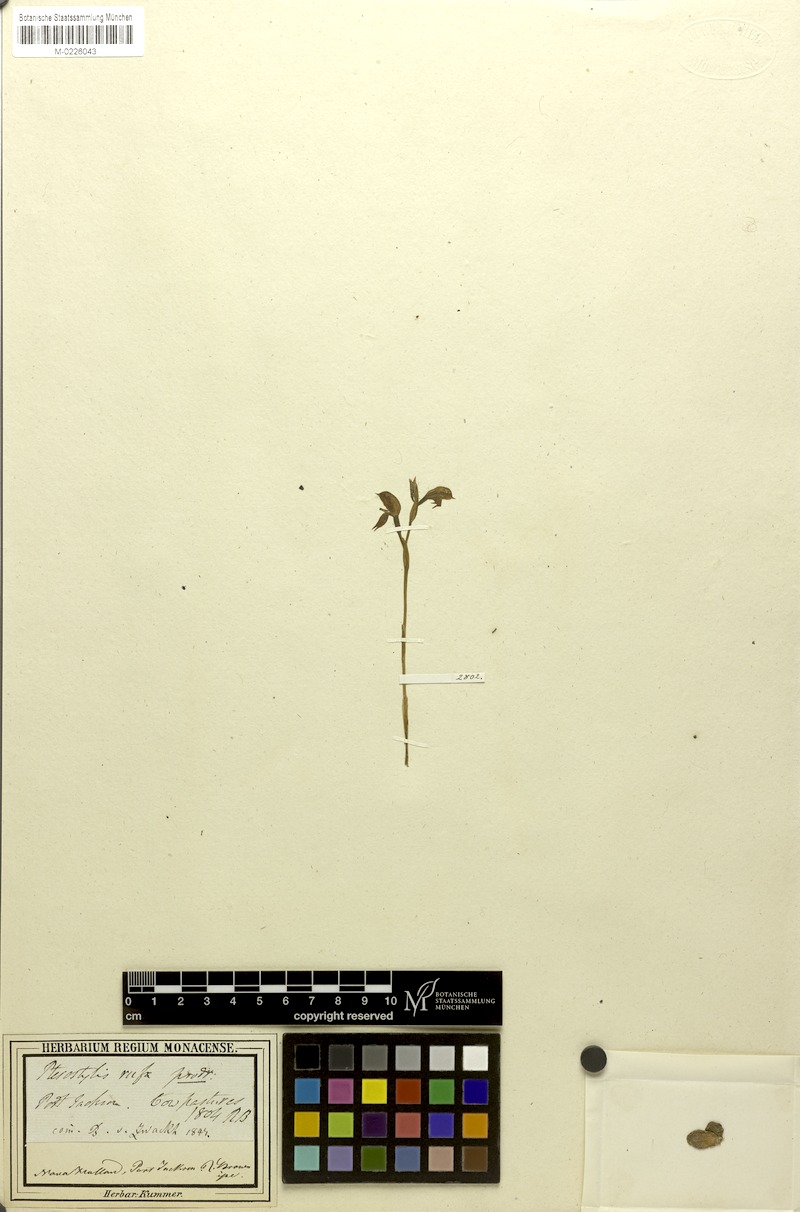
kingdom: Plantae
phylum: Tracheophyta
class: Liliopsida
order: Asparagales
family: Orchidaceae
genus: Pterostylis
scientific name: Pterostylis rufa
